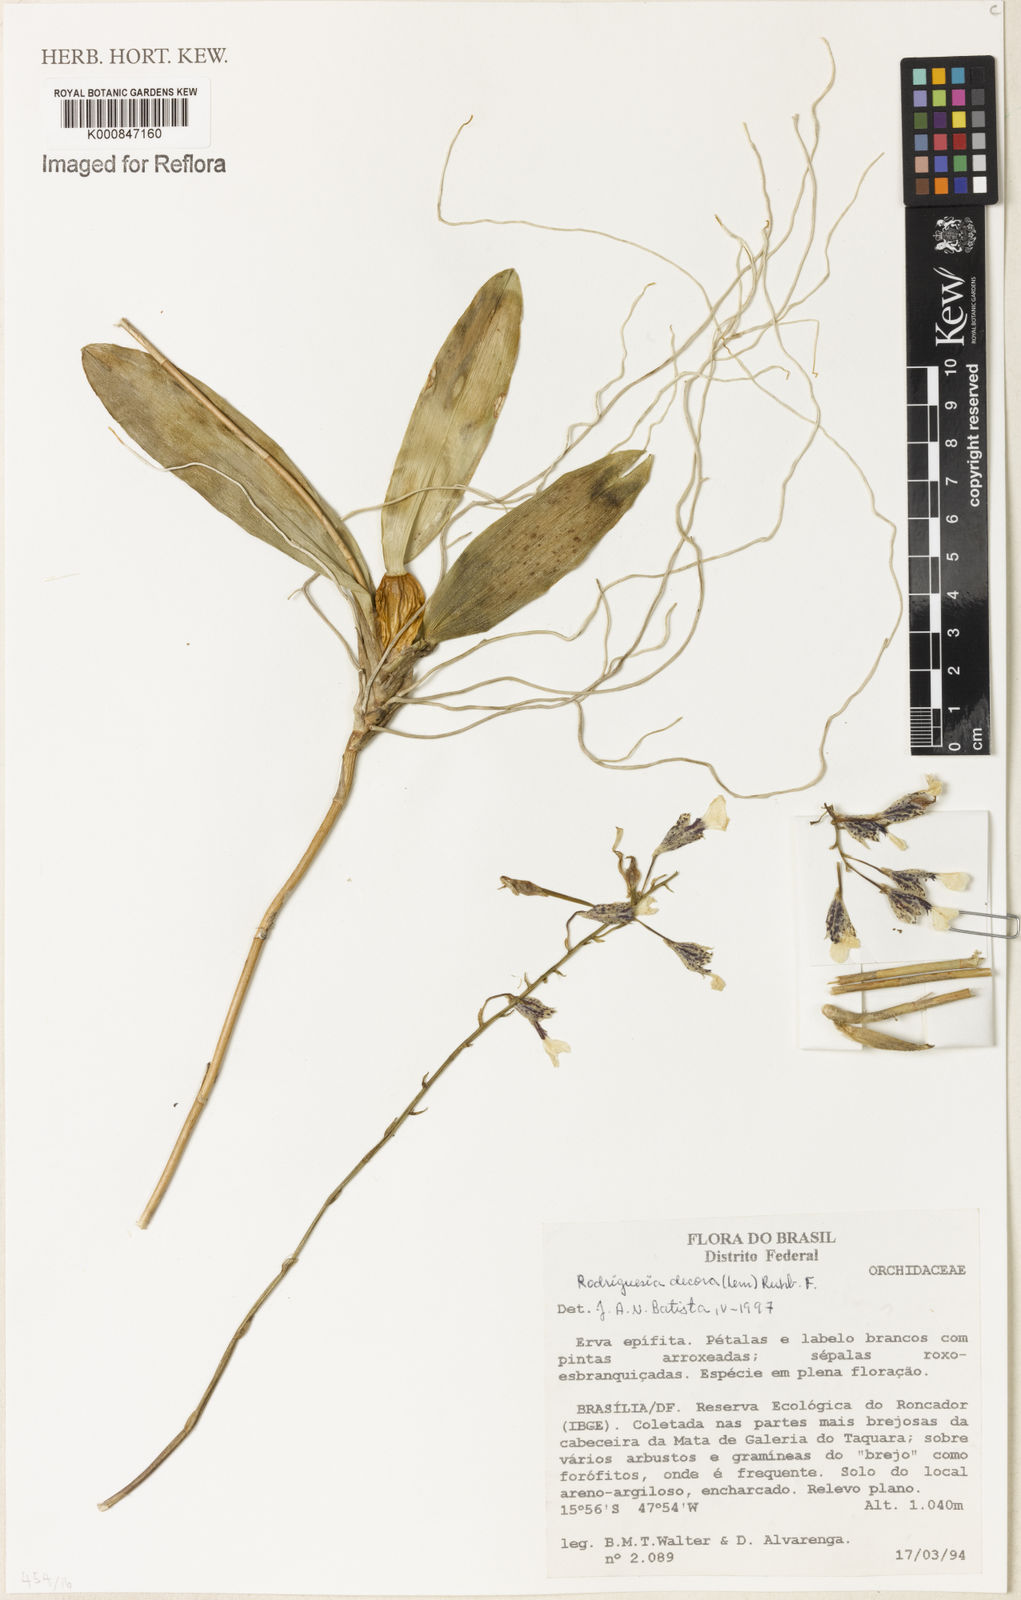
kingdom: Plantae
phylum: Tracheophyta
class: Liliopsida
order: Asparagales
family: Orchidaceae
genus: Rodriguezia
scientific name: Rodriguezia decora
